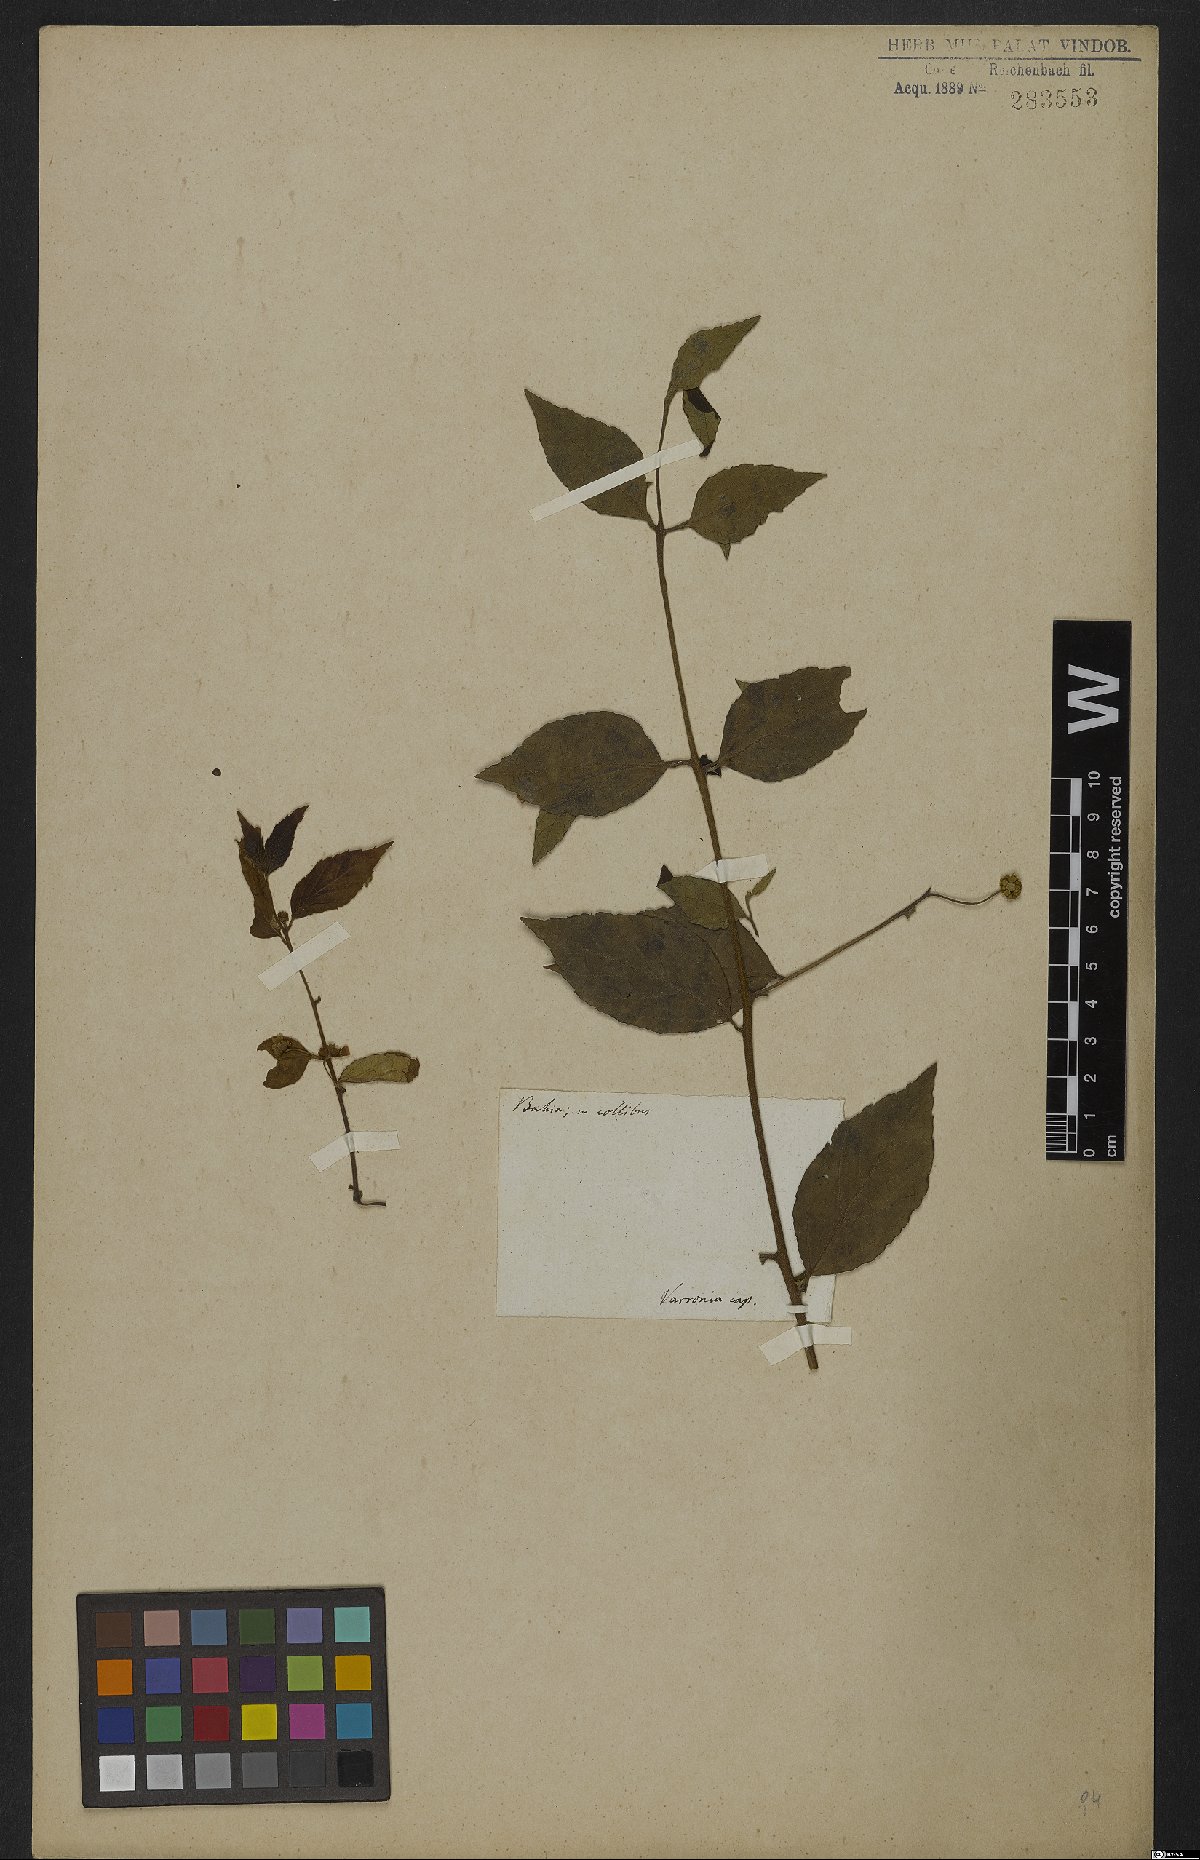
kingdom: Plantae
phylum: Tracheophyta
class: Magnoliopsida
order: Boraginales
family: Cordiaceae
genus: Cordia
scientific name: Cordia
